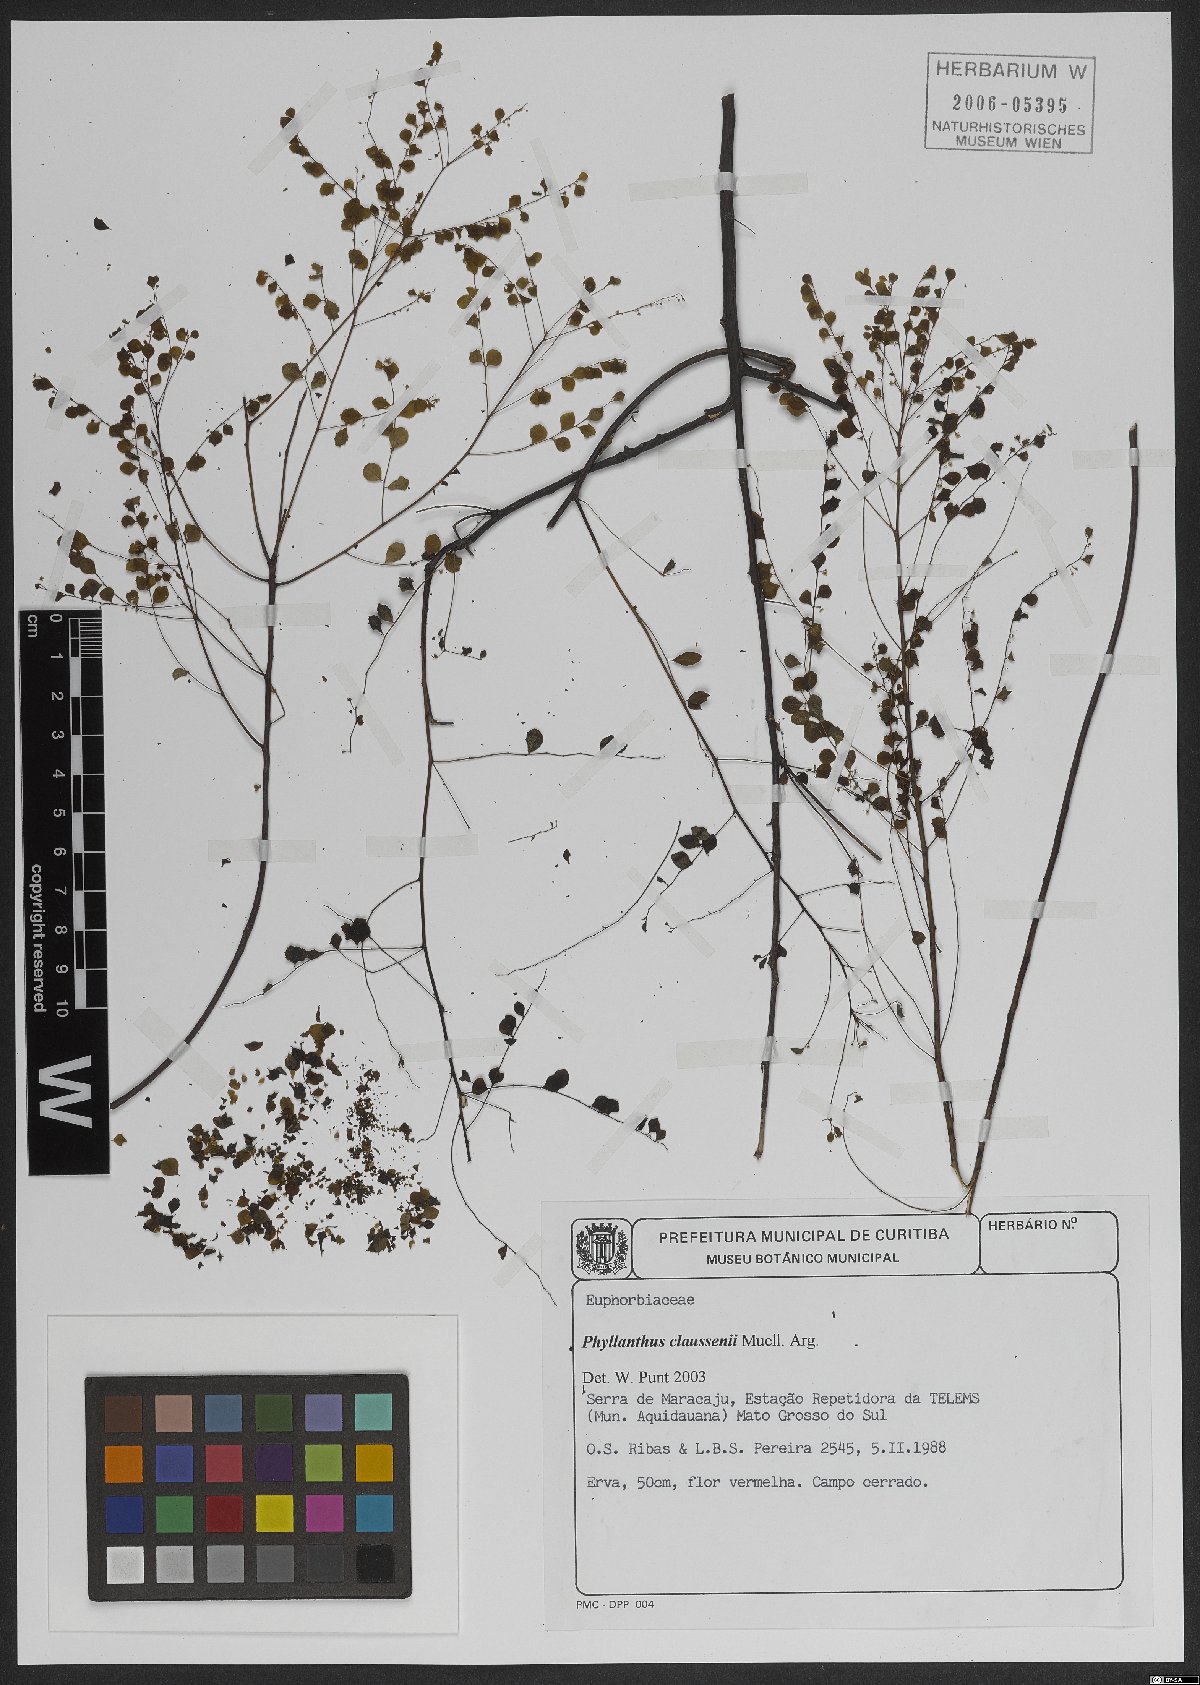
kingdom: Plantae
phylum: Tracheophyta
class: Magnoliopsida
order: Malpighiales
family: Phyllanthaceae
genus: Phyllanthus
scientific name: Phyllanthus claussenii
